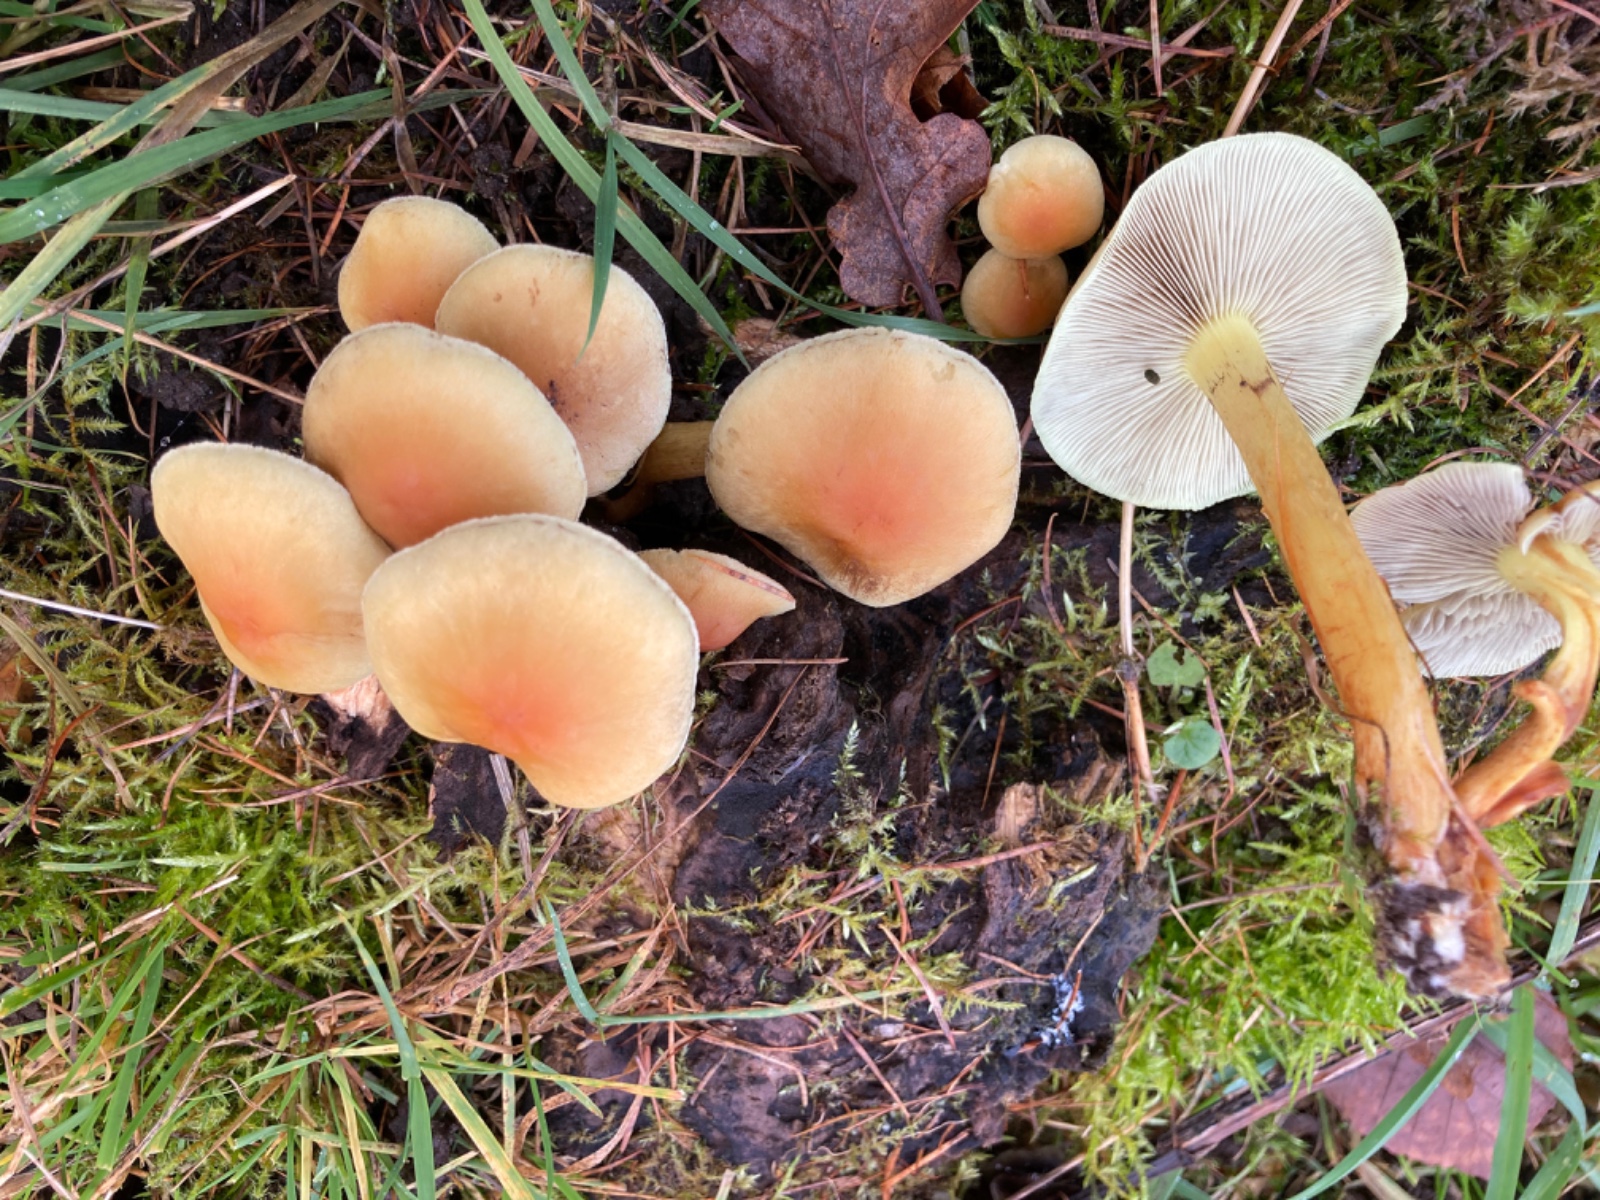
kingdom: Fungi
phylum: Basidiomycota
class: Agaricomycetes
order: Agaricales
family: Strophariaceae
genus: Hypholoma
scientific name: Hypholoma capnoides
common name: gran-svovlhat
